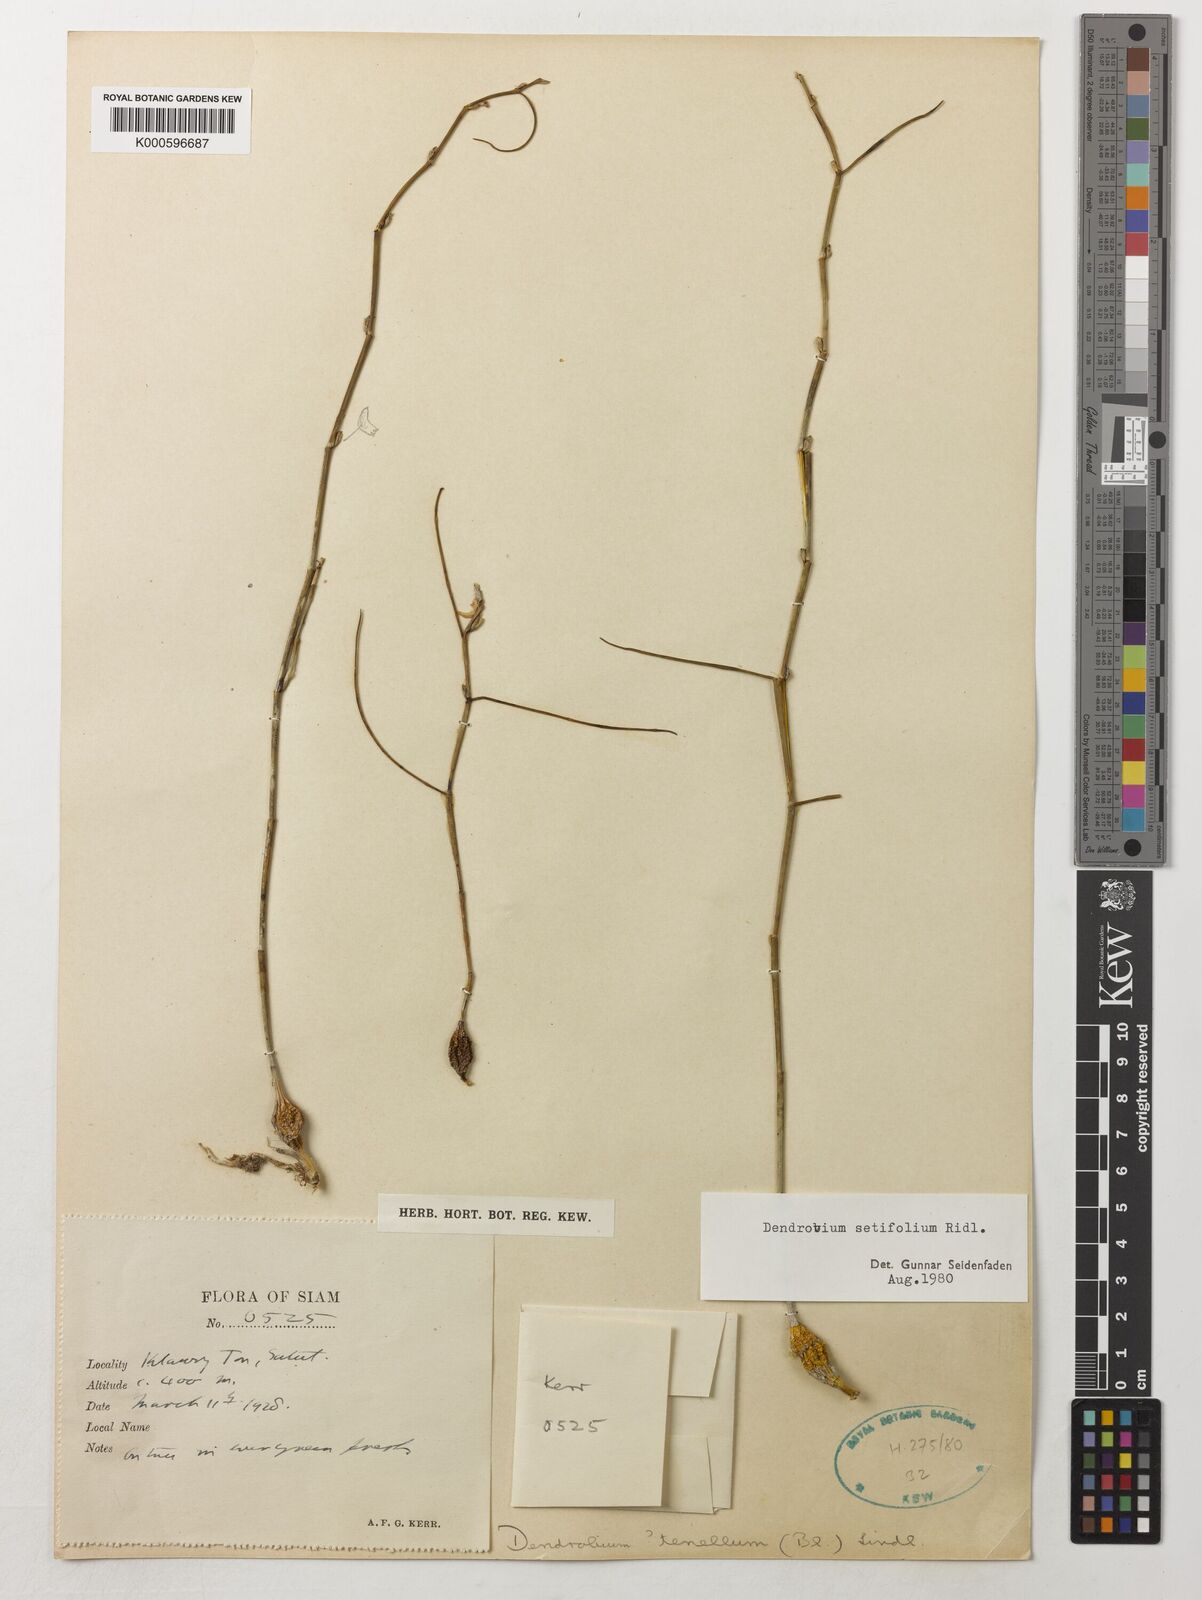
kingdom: Plantae
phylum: Tracheophyta
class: Liliopsida
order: Asparagales
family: Orchidaceae
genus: Dendrobium
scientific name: Dendrobium setifolium
